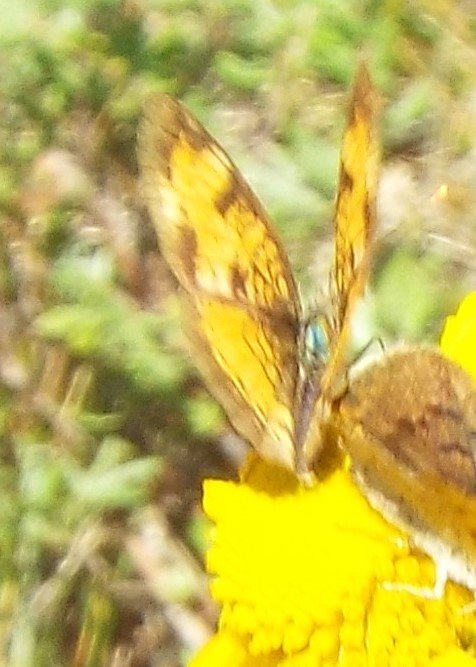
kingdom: Animalia
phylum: Arthropoda
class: Insecta
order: Lepidoptera
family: Nymphalidae
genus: Phyciodes
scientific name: Phyciodes tharos
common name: Northern Crescent
